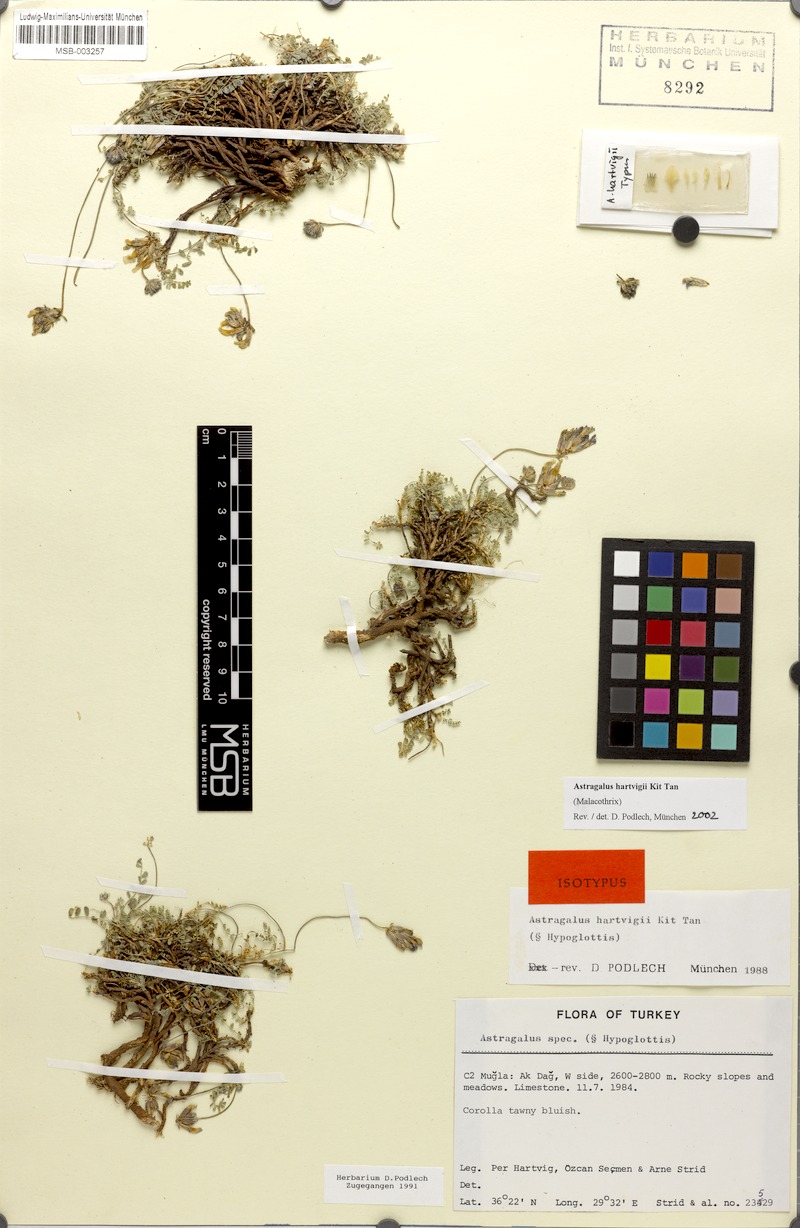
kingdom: Plantae
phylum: Tracheophyta
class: Magnoliopsida
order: Fabales
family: Fabaceae
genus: Astragalus
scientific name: Astragalus hartvigii
